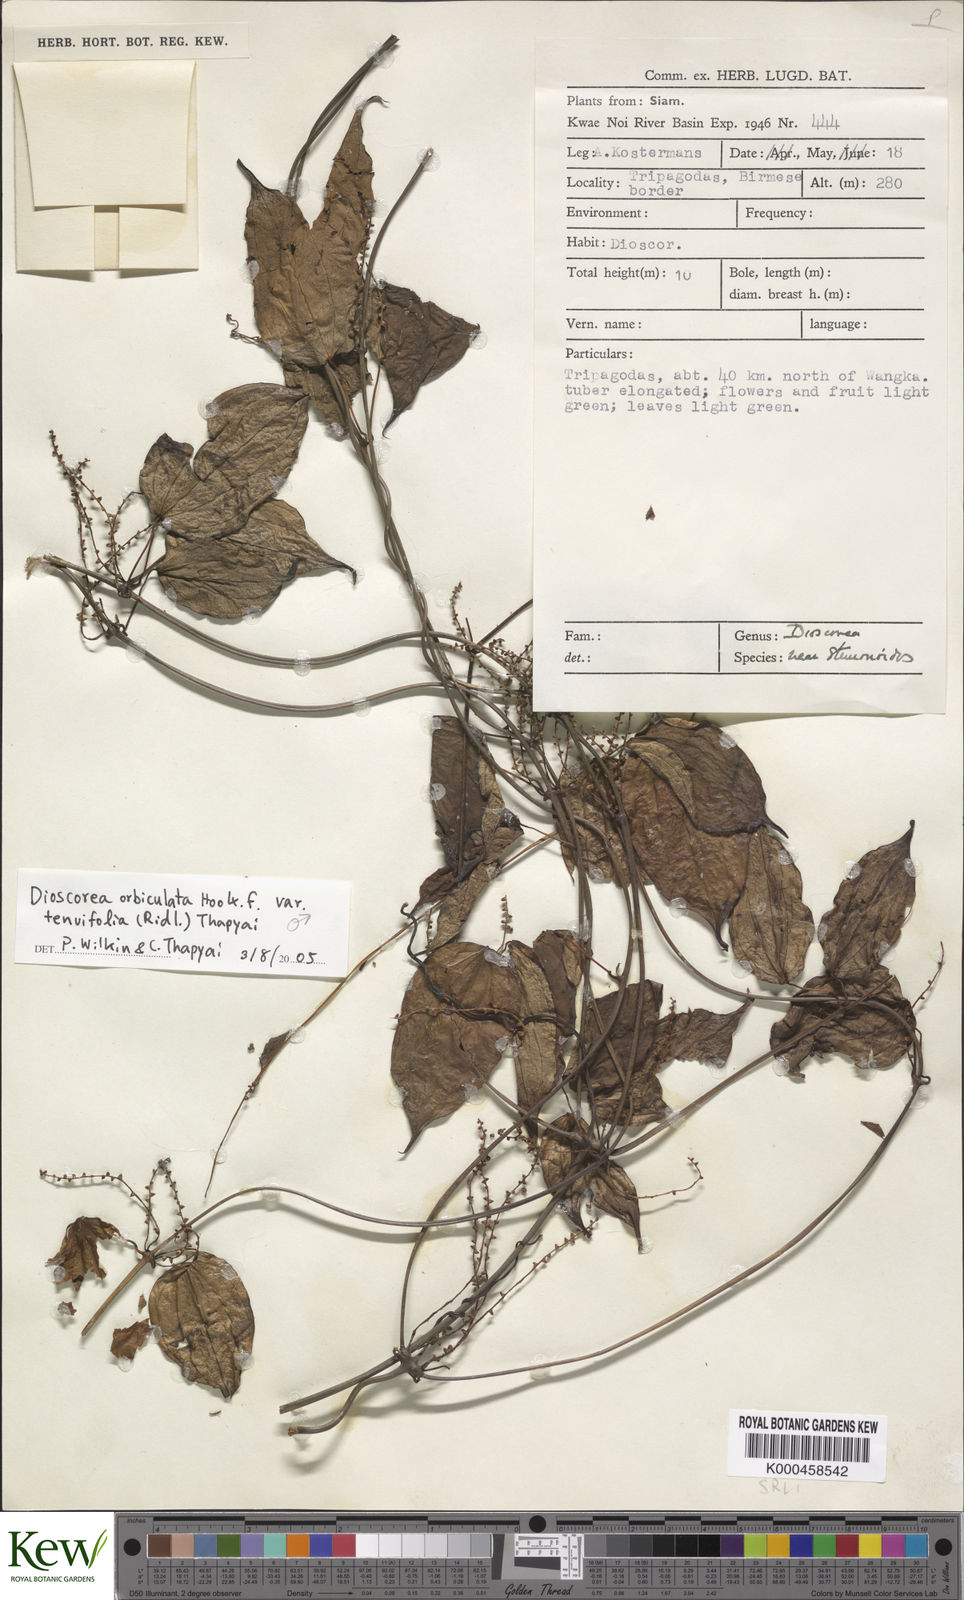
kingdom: Plantae
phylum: Tracheophyta
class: Liliopsida
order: Dioscoreales
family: Dioscoreaceae
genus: Dioscorea
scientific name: Dioscorea tenuifolia
